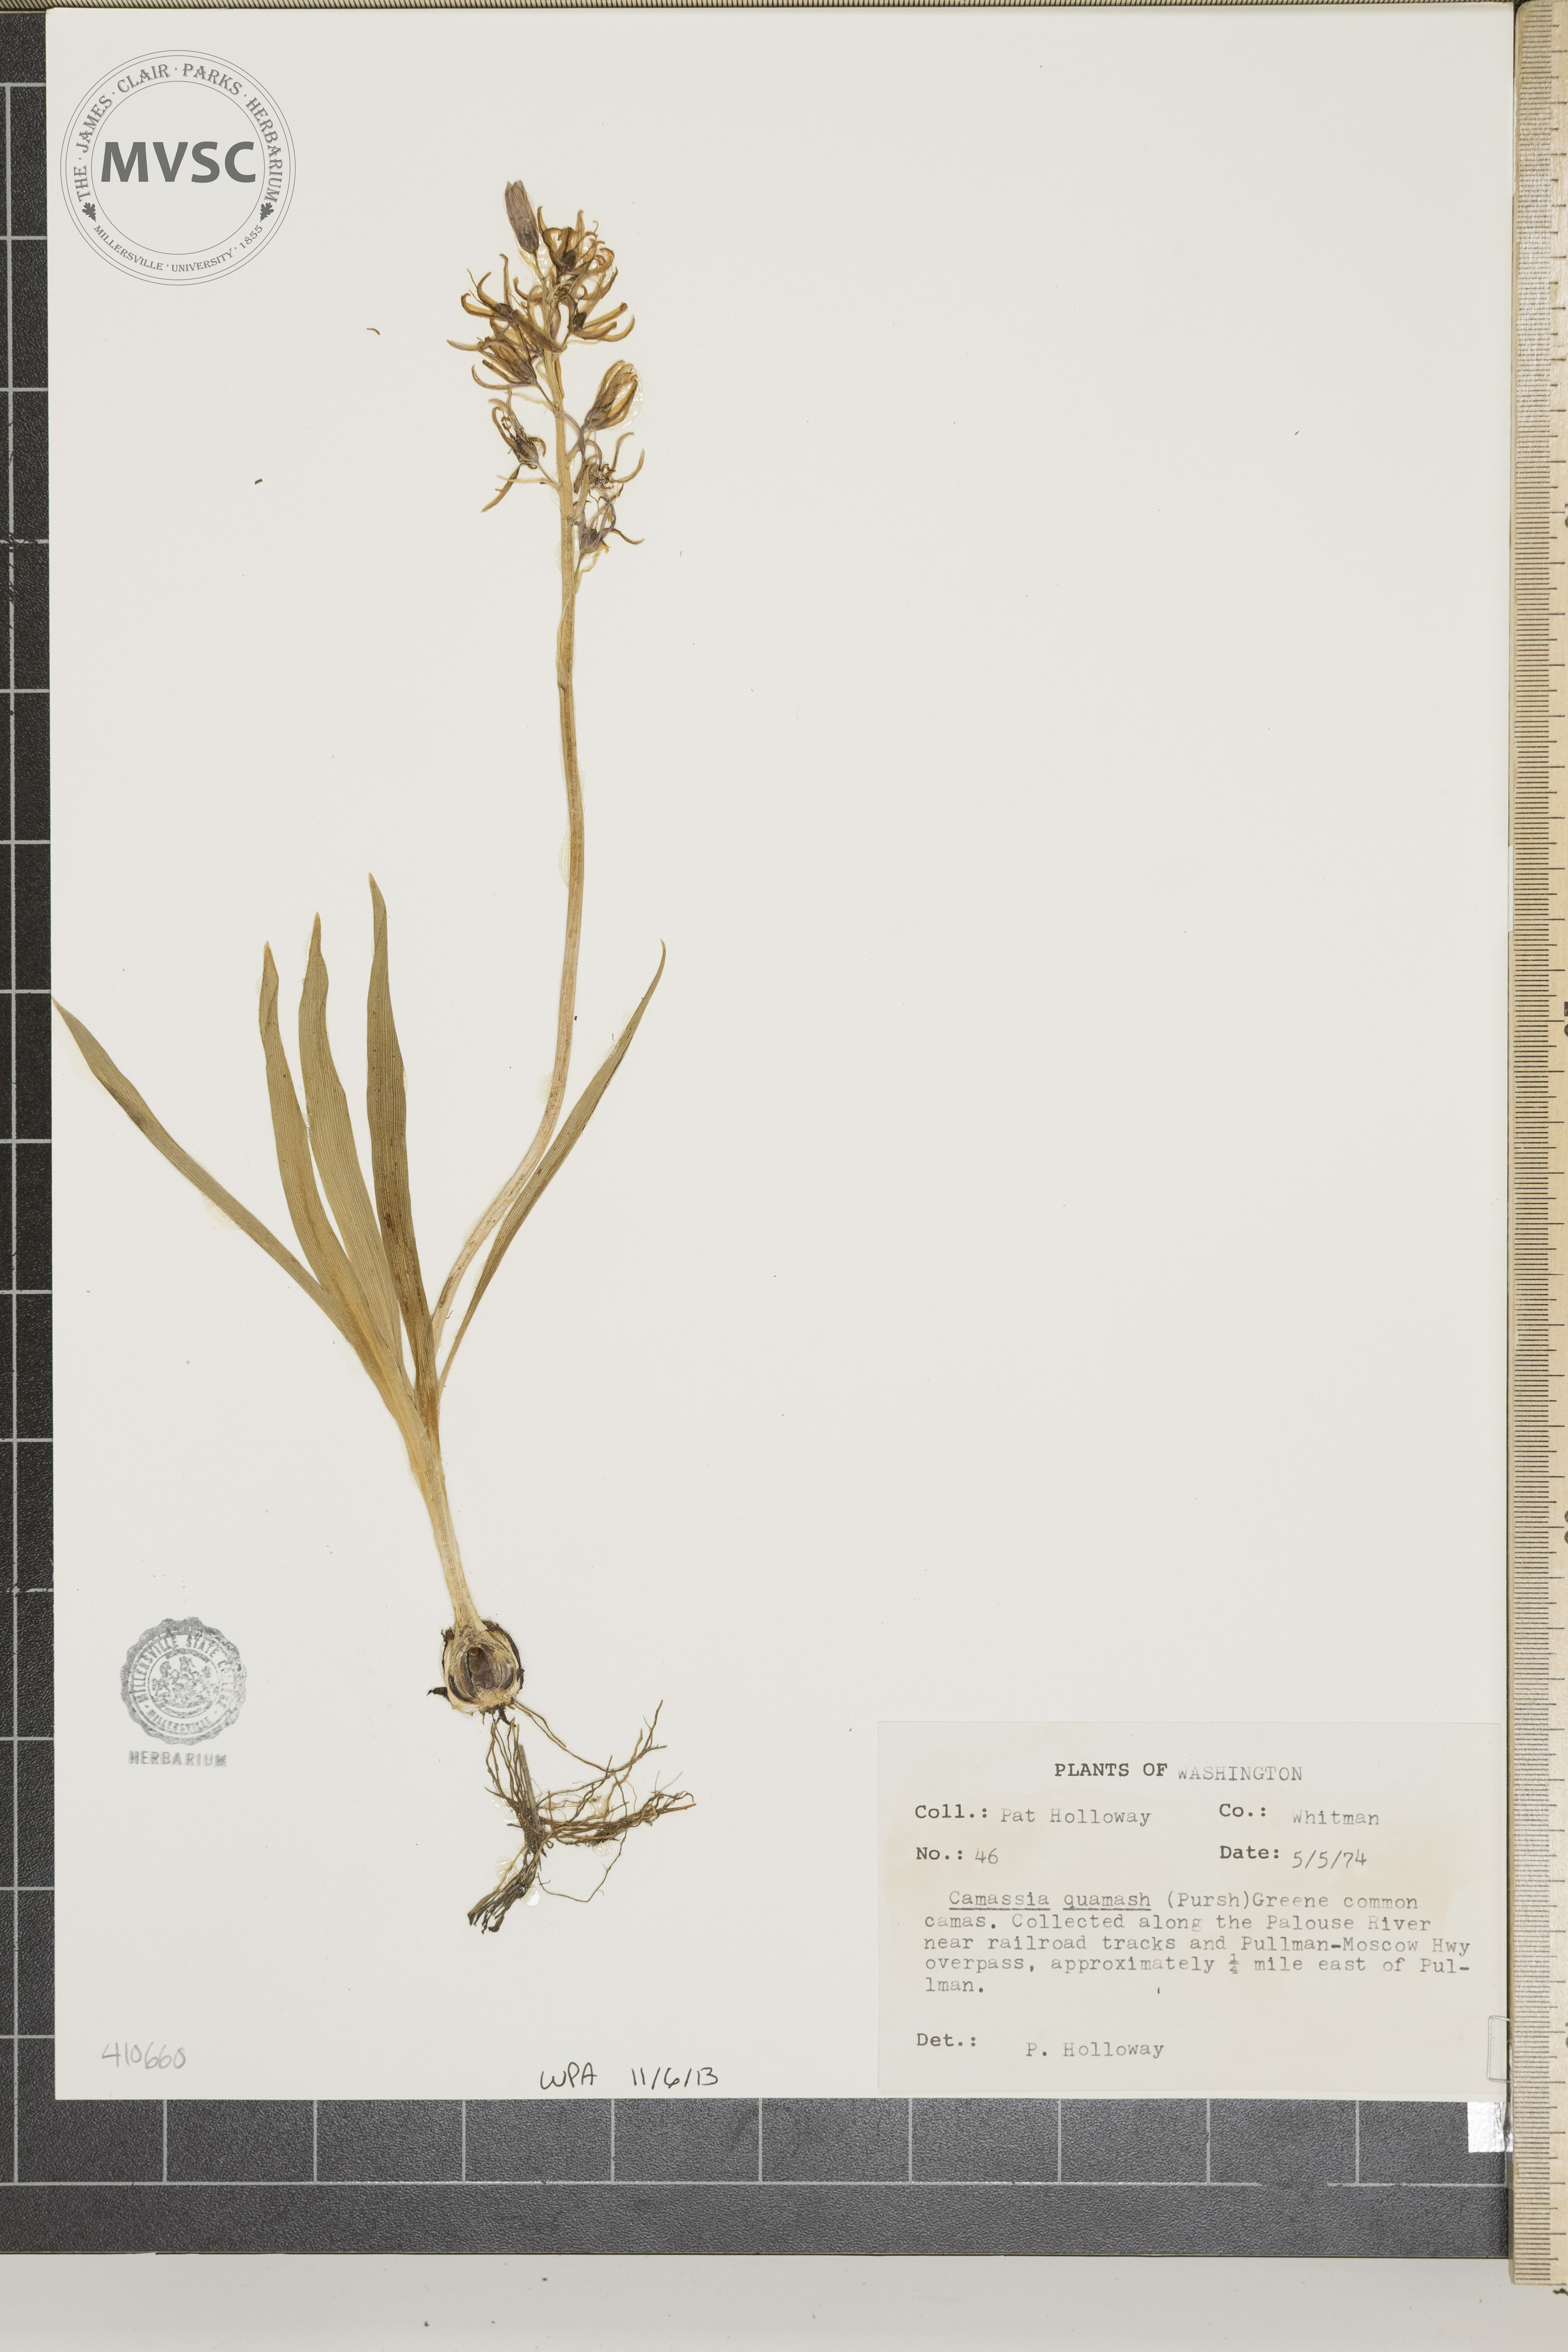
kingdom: Plantae
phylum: Tracheophyta
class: Liliopsida
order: Asparagales
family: Asparagaceae
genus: Camassia
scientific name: Camassia quamash
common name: Common camas
